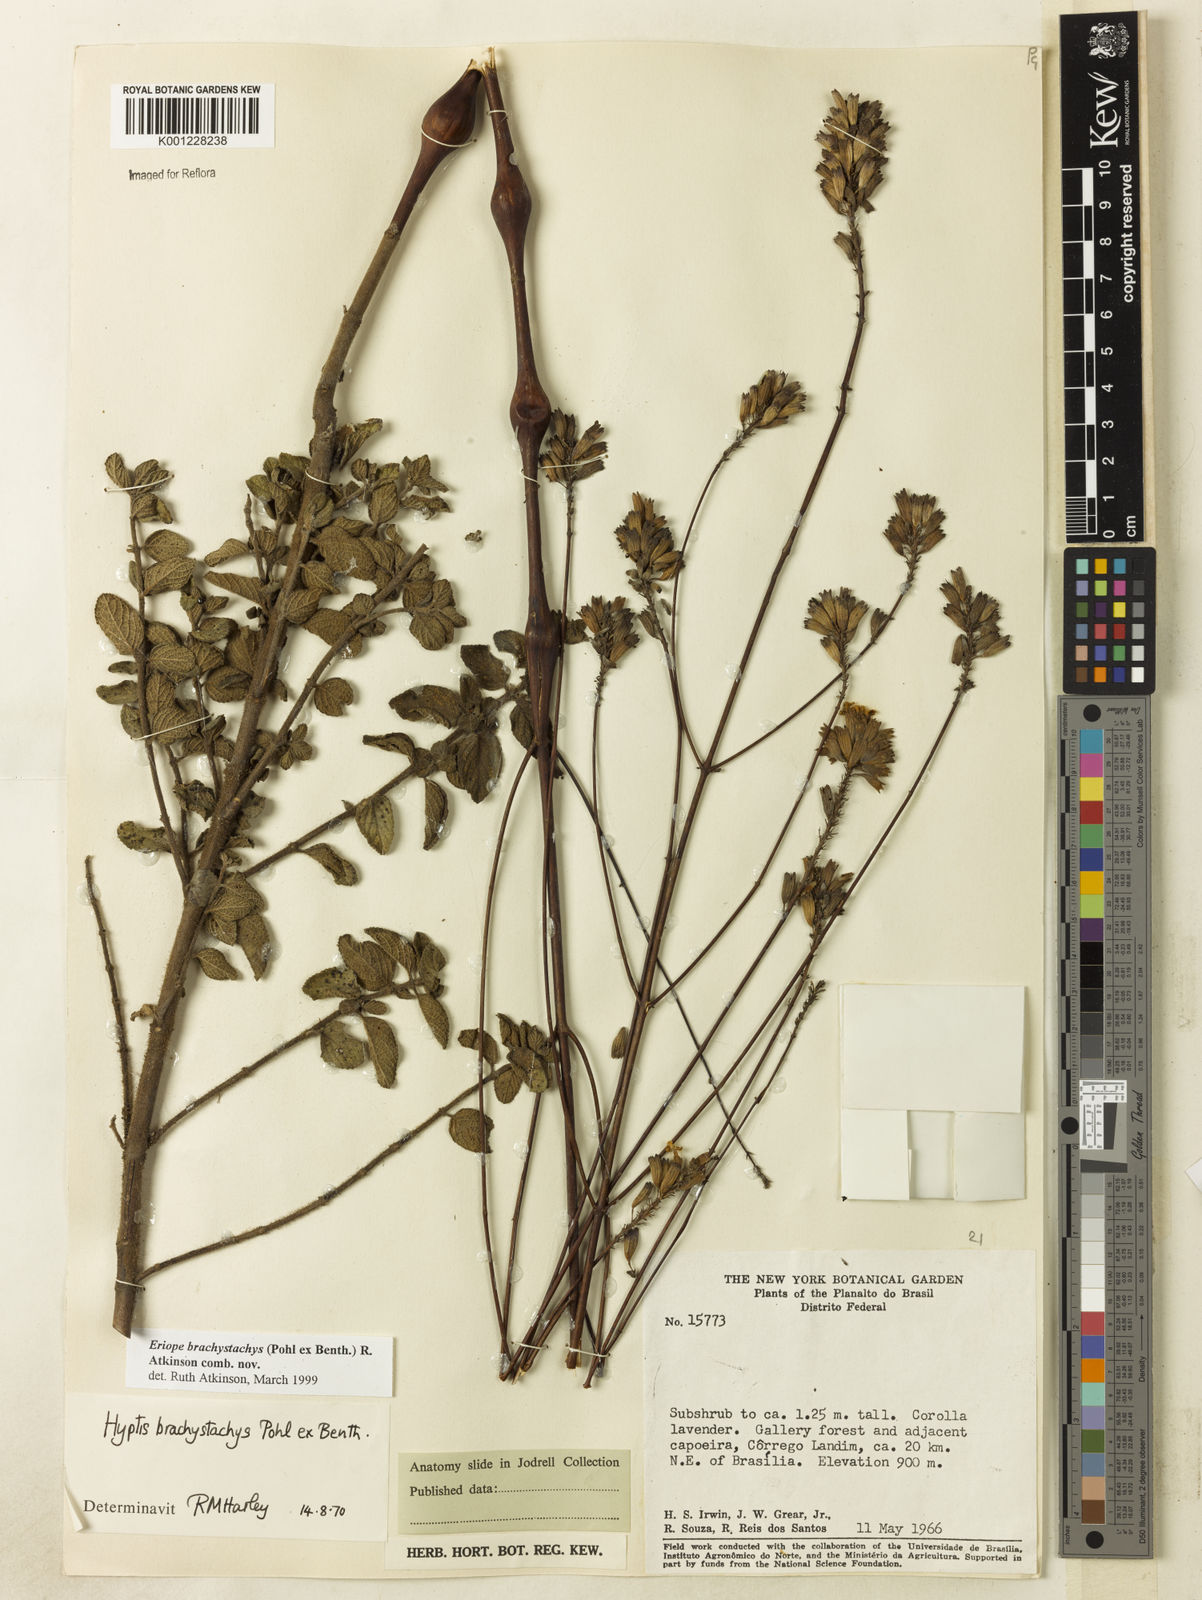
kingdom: Plantae
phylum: Tracheophyta
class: Magnoliopsida
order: Lamiales
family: Lamiaceae
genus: Hypenia
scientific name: Hypenia brachystachys
